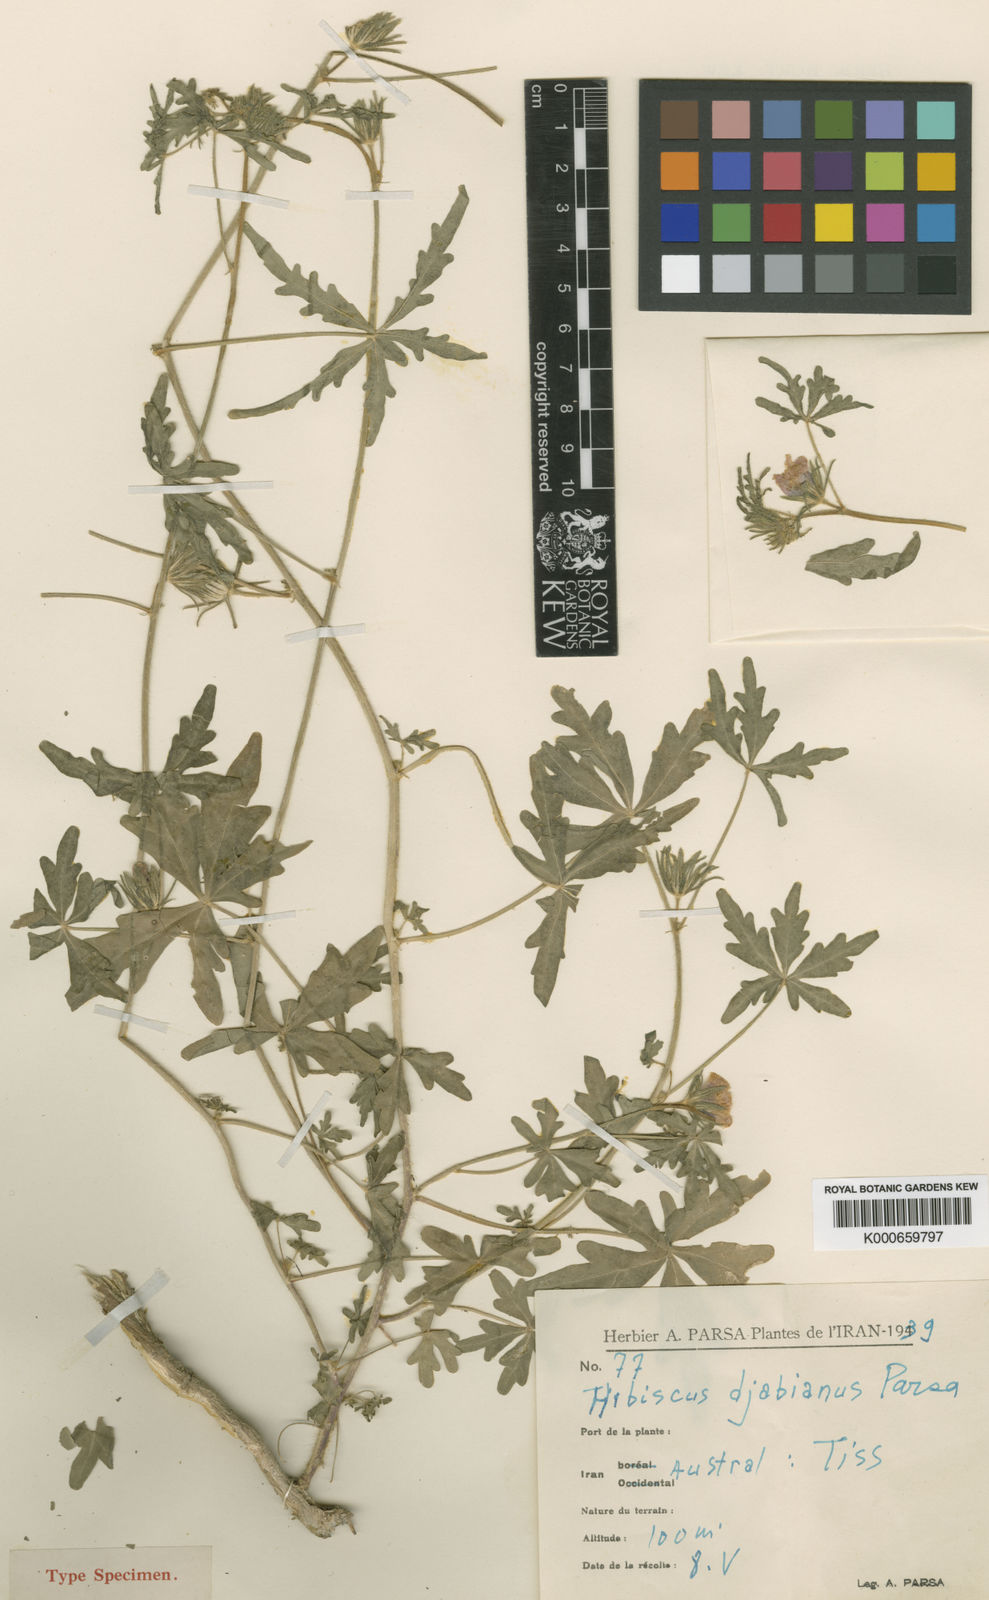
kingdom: Plantae
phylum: Tracheophyta
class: Magnoliopsida
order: Malvales
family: Malvaceae
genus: Hibiscus
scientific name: Hibiscus palmatus
